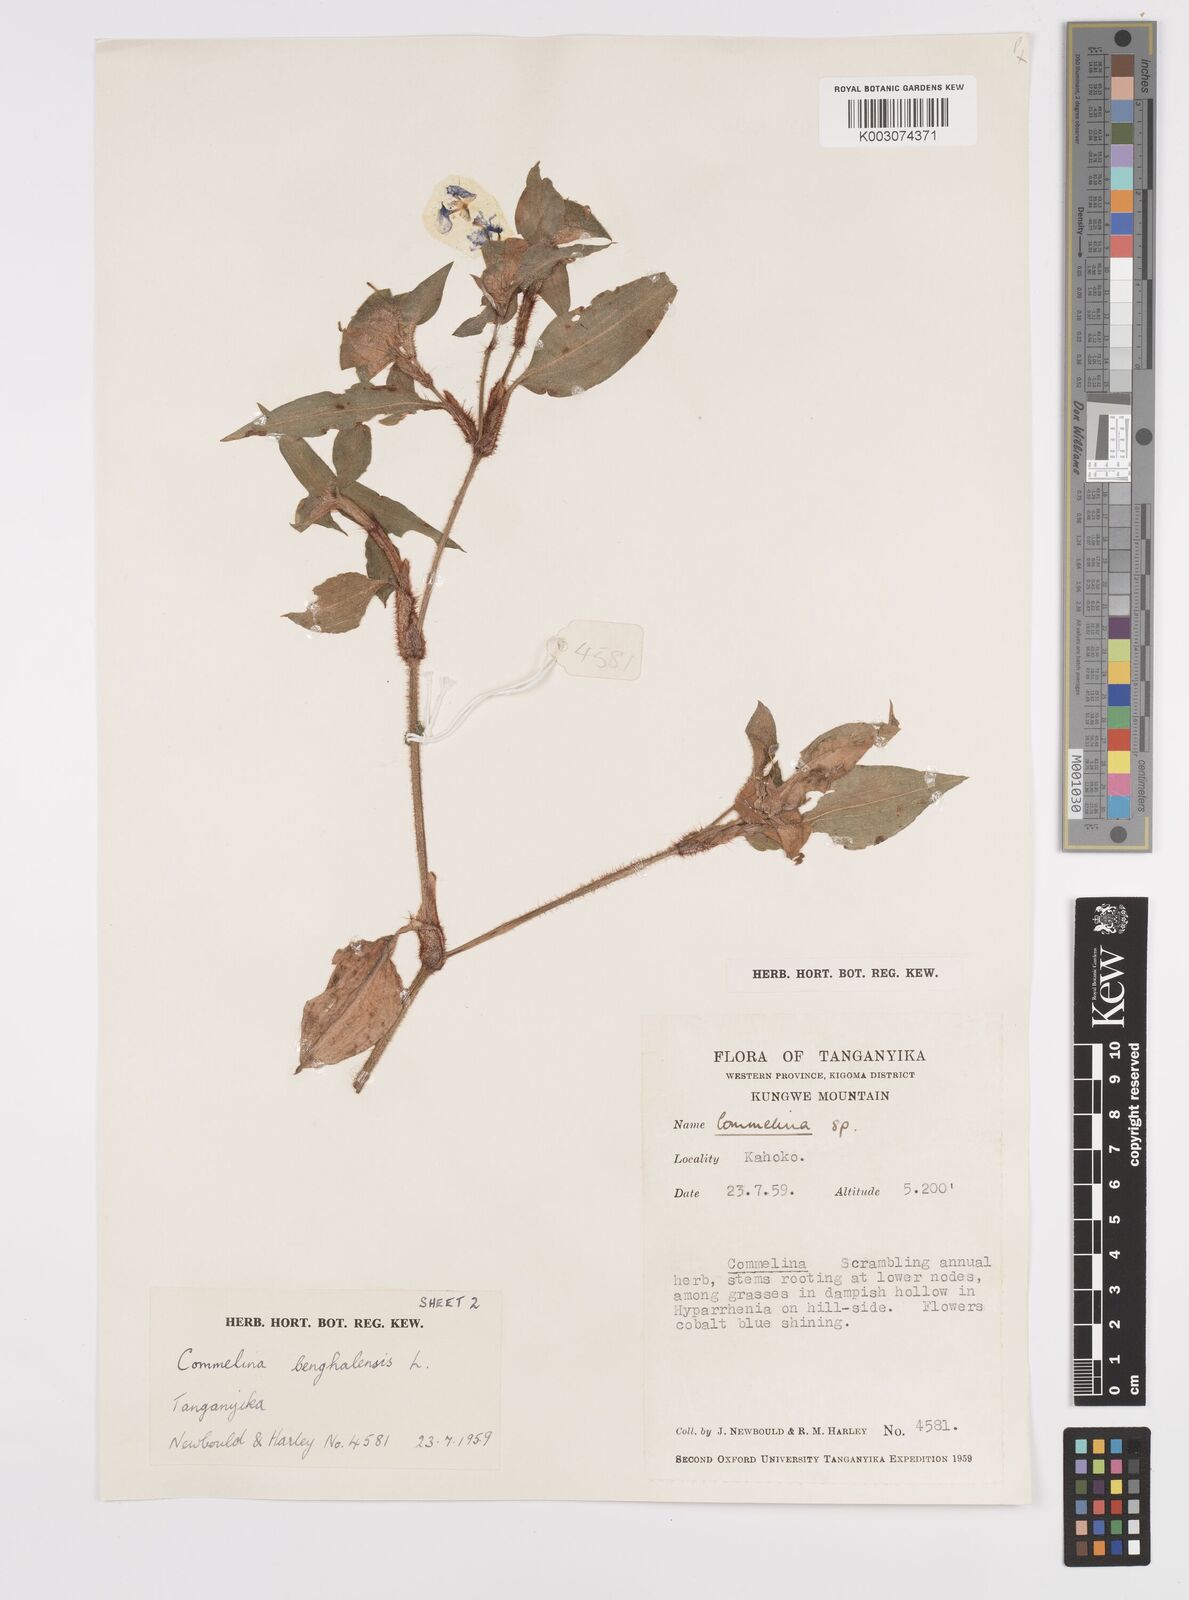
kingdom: Plantae
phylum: Tracheophyta
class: Liliopsida
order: Commelinales
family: Commelinaceae
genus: Commelina
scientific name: Commelina benghalensis
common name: Jio
